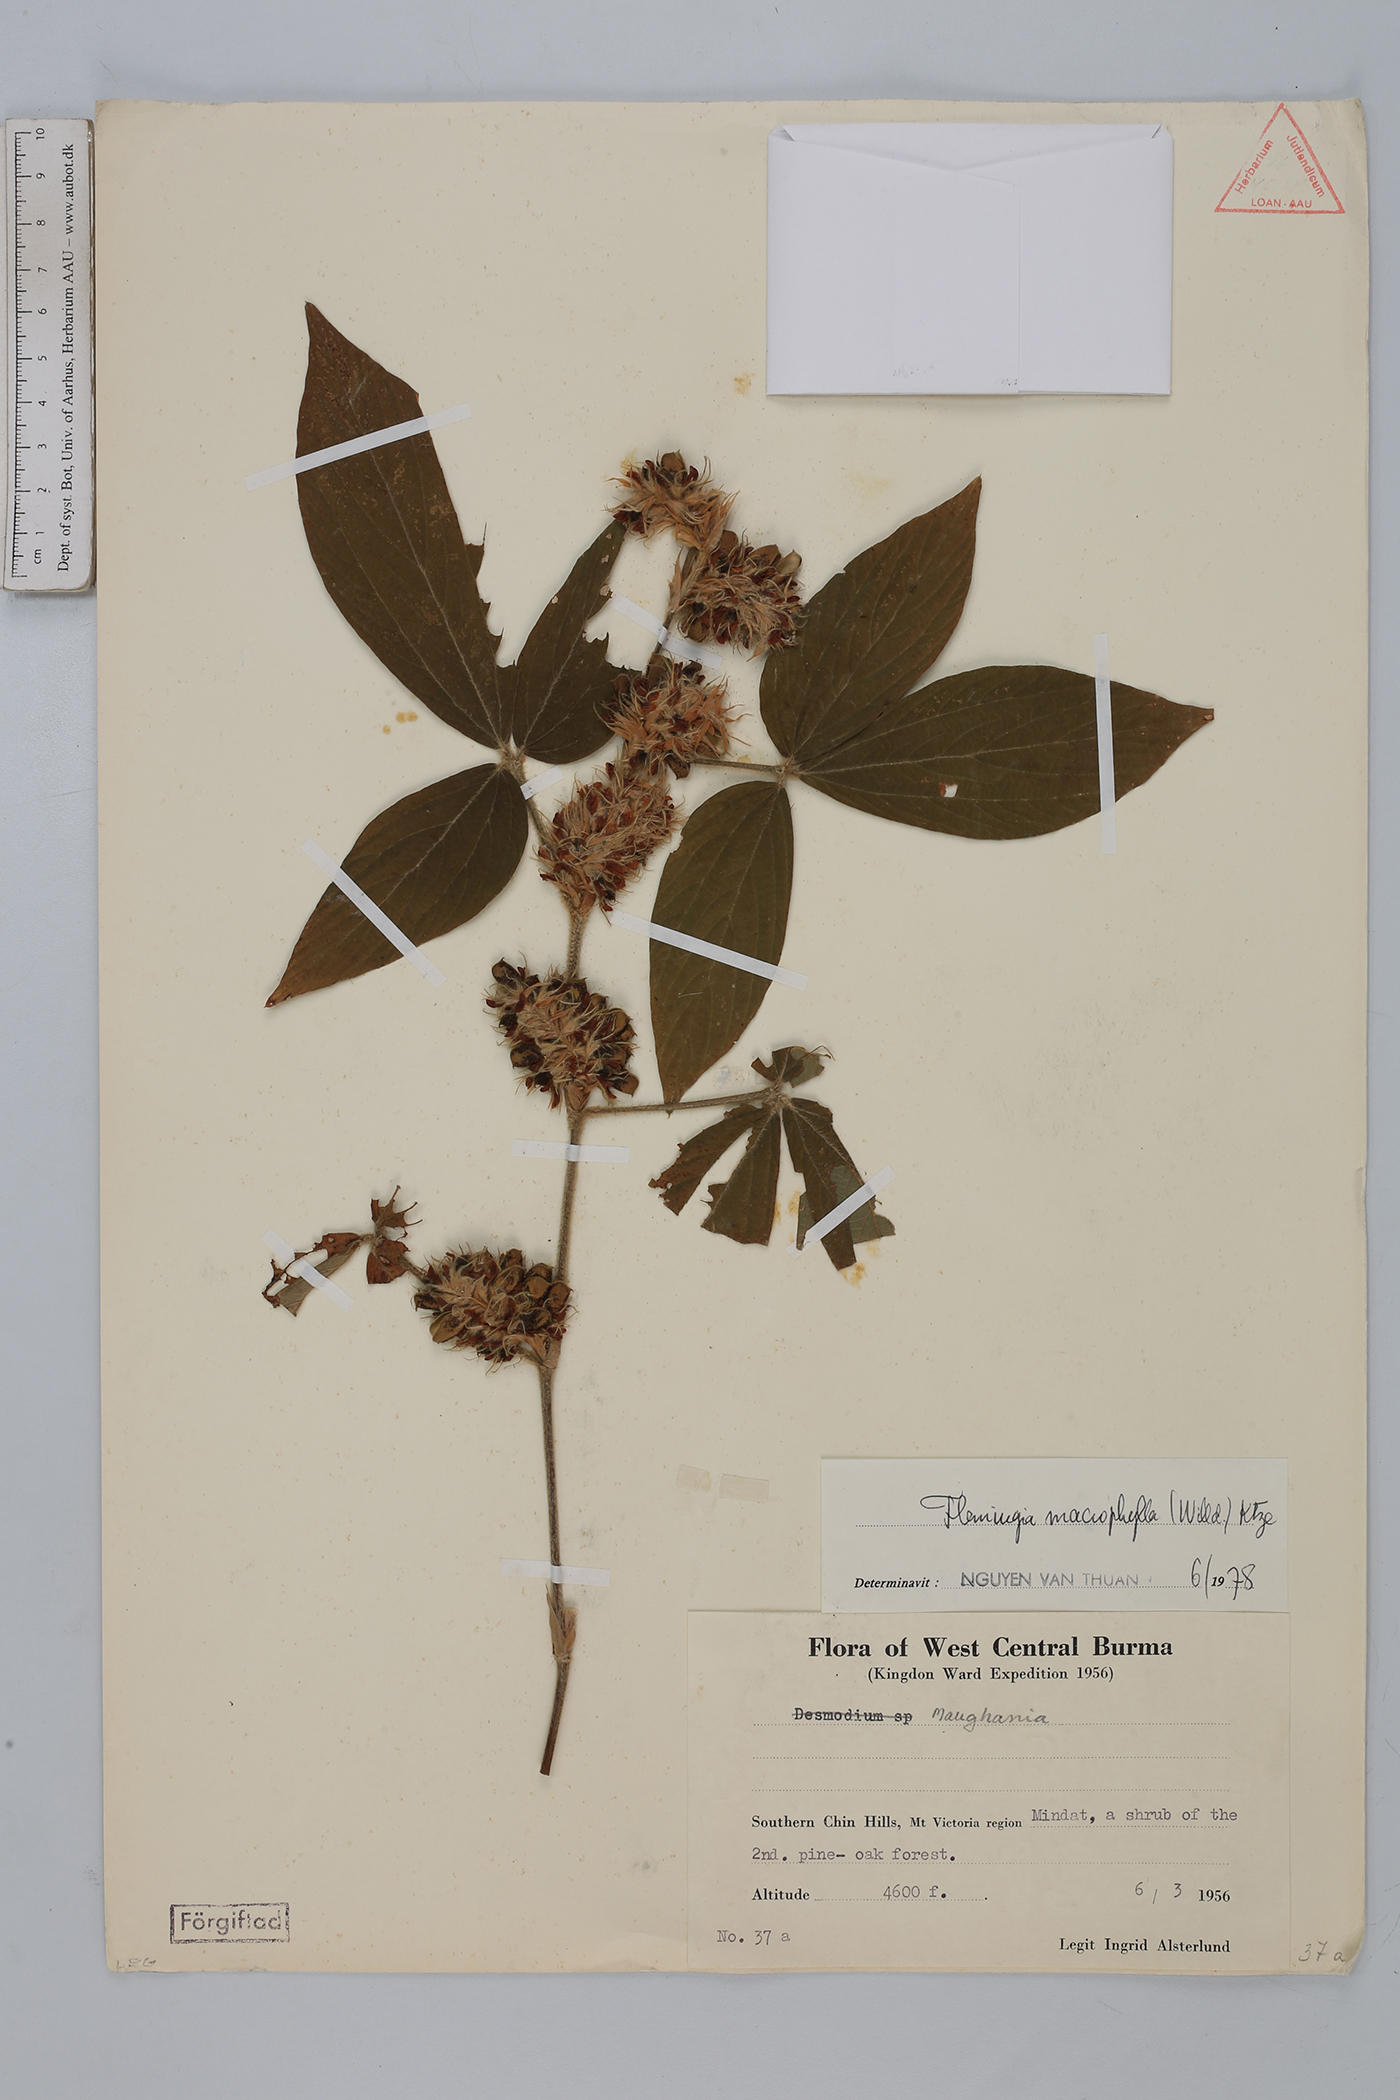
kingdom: Plantae
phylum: Tracheophyta
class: Magnoliopsida
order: Fabales
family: Fabaceae
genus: Flemingia
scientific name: Flemingia macrophylla
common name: Flemingia
